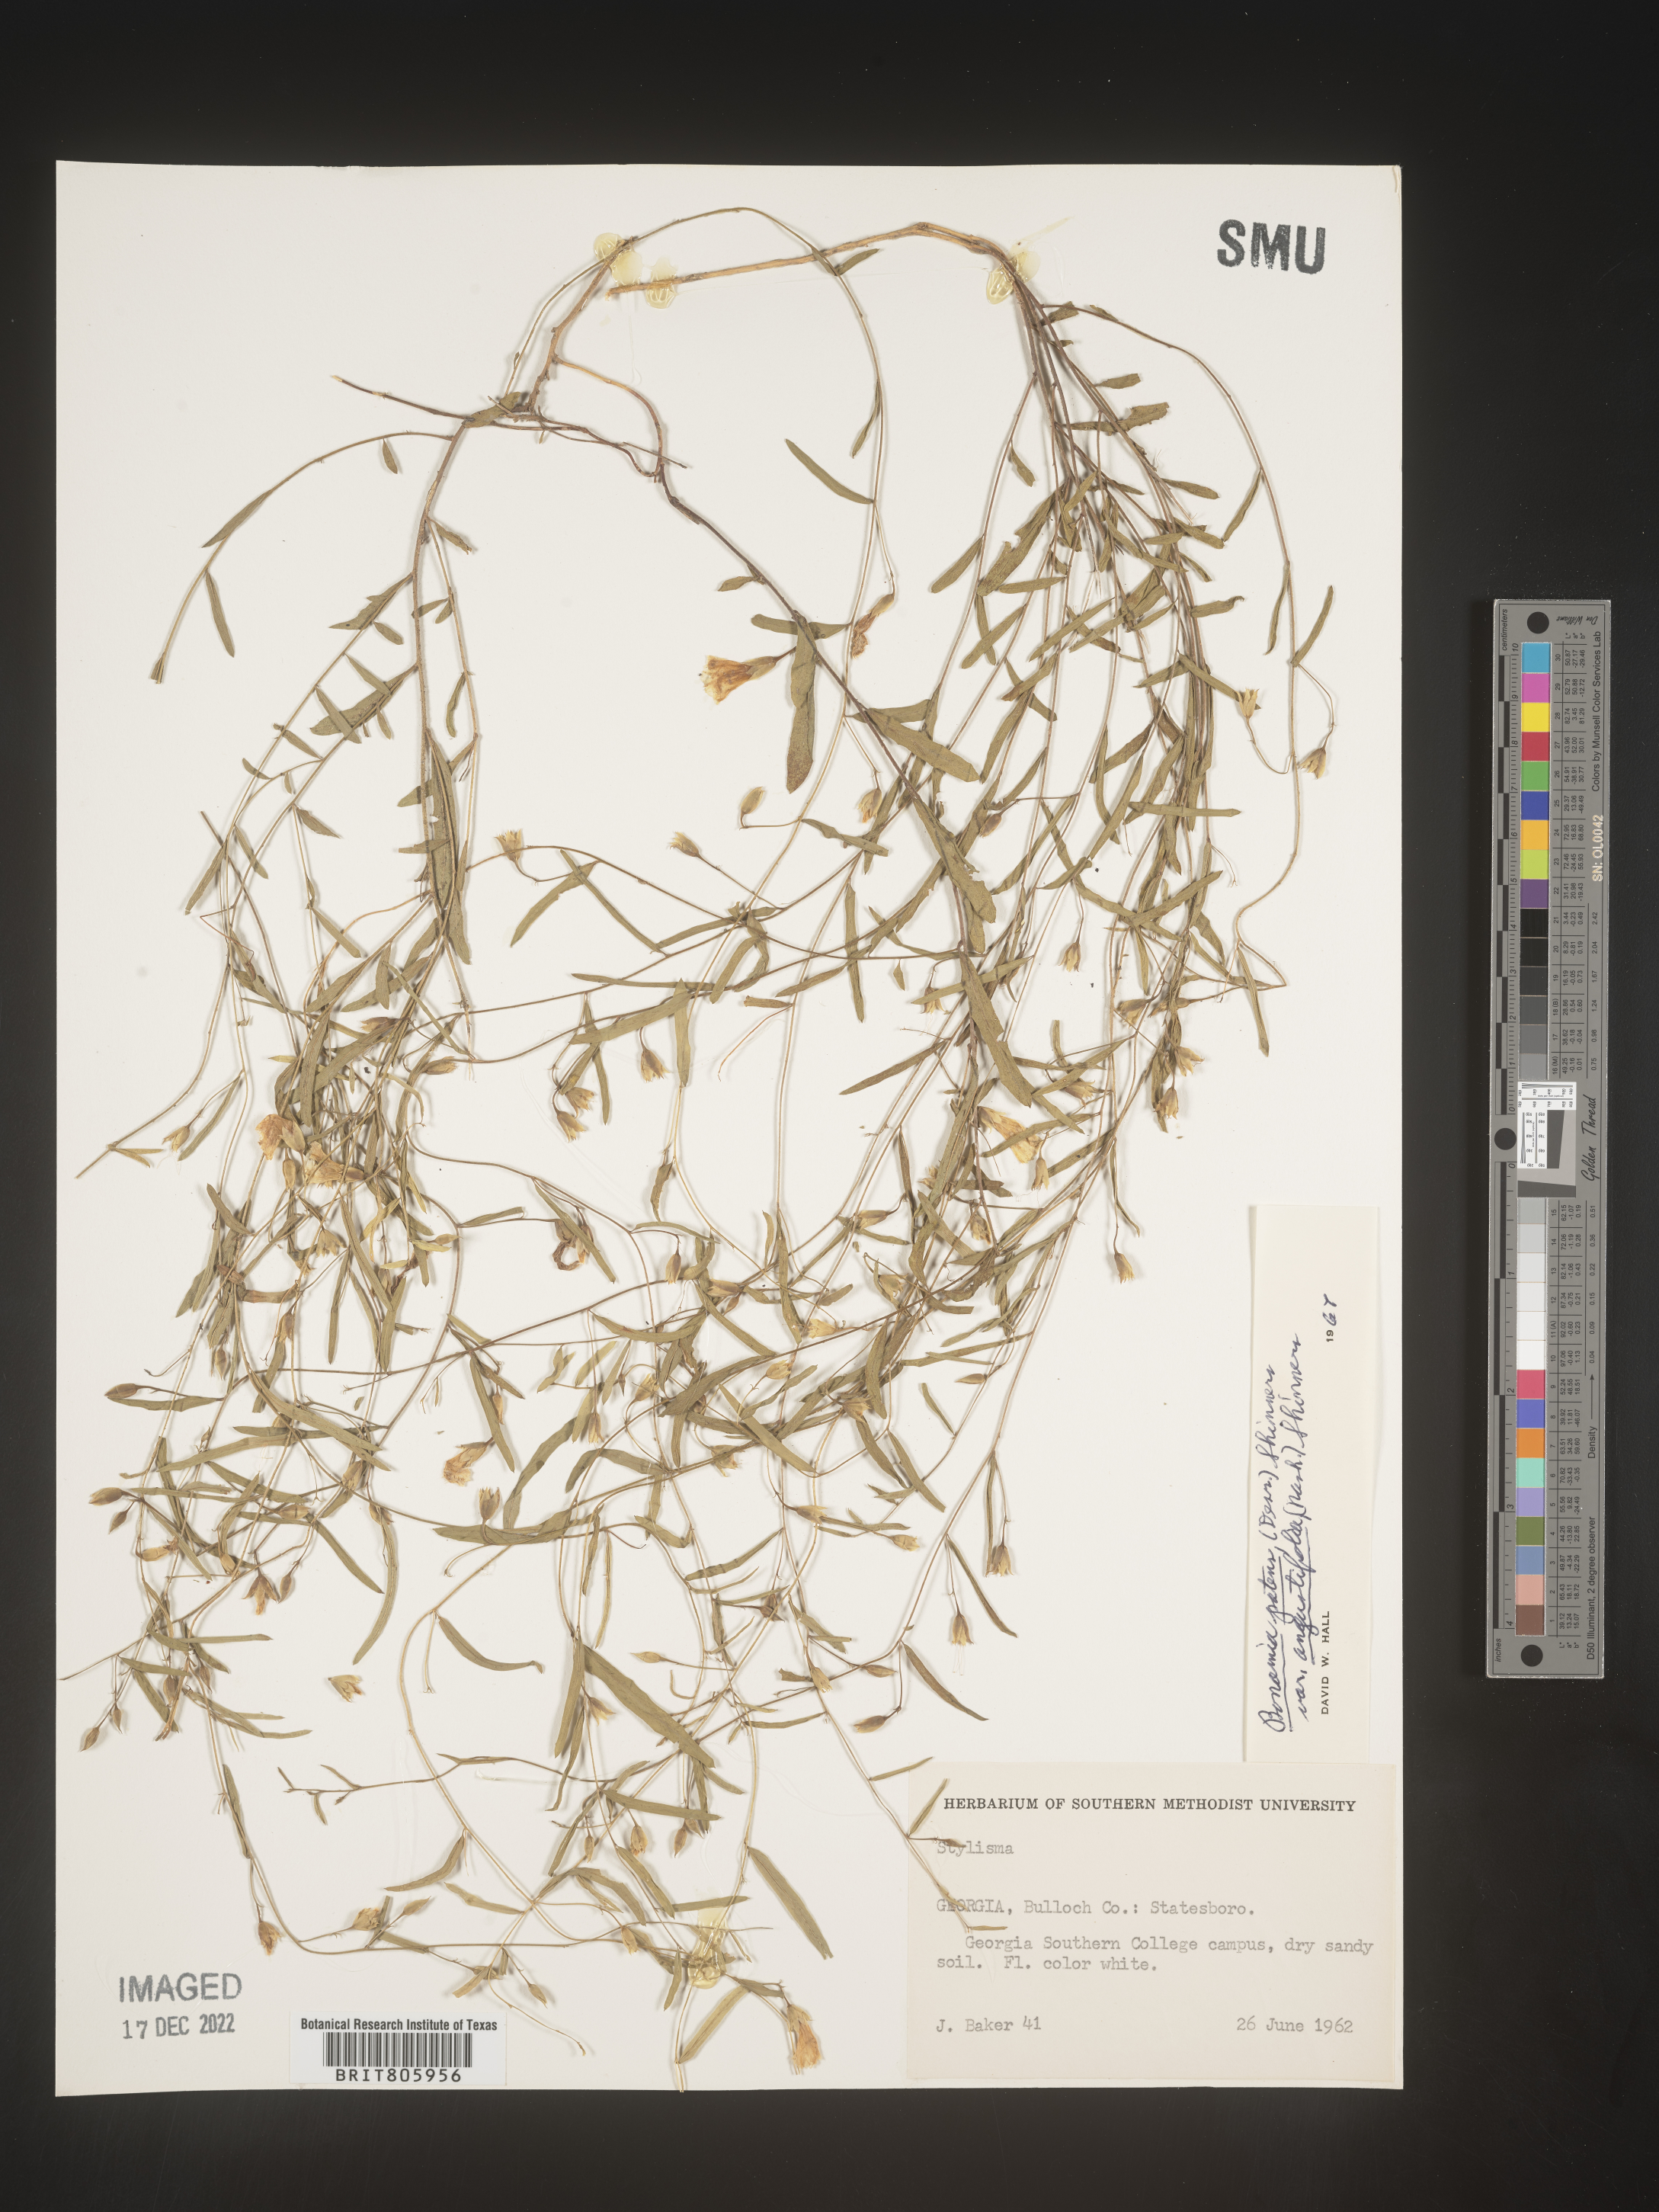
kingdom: Plantae
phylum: Tracheophyta
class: Magnoliopsida
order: Solanales
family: Convolvulaceae
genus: Stylisma
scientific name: Stylisma
